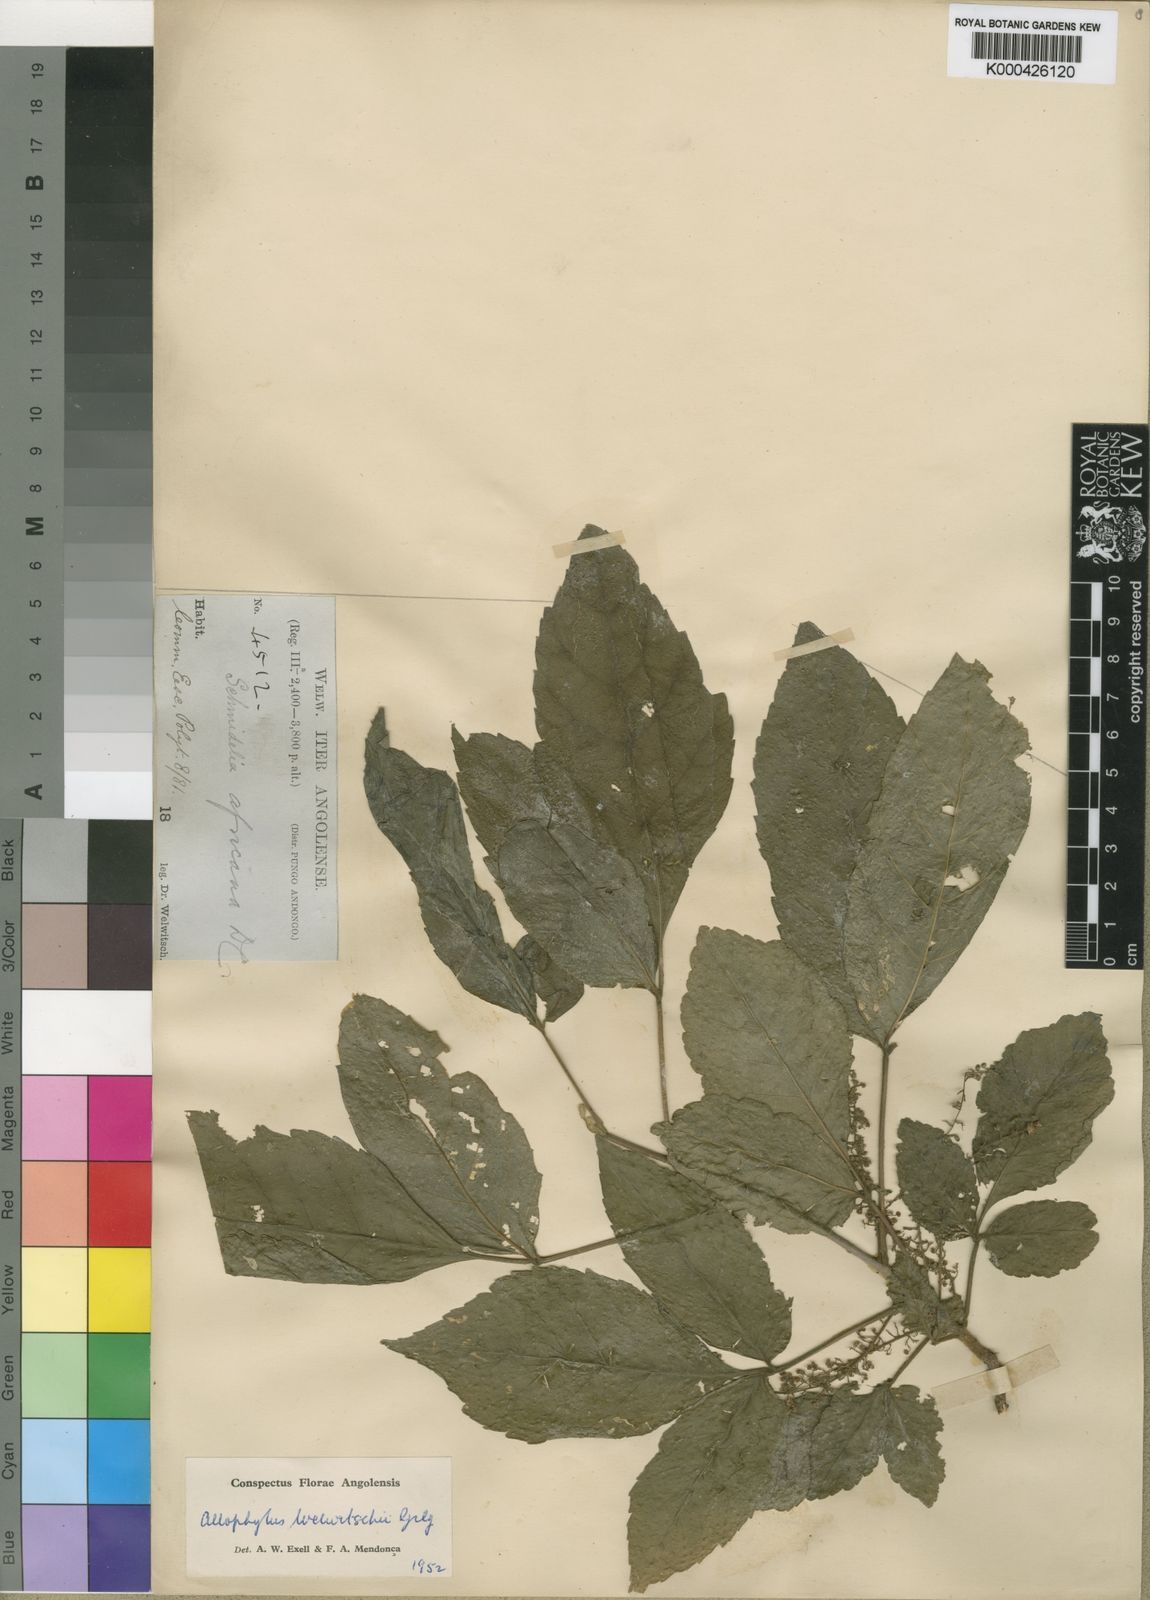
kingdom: Plantae
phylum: Tracheophyta
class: Magnoliopsida
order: Sapindales
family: Sapindaceae
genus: Allophylus
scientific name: Allophylus welwitschii
